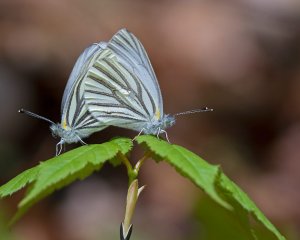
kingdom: Animalia
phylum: Arthropoda
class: Insecta
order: Lepidoptera
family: Pieridae
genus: Pieris
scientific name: Pieris oleracea
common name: Mustard White
